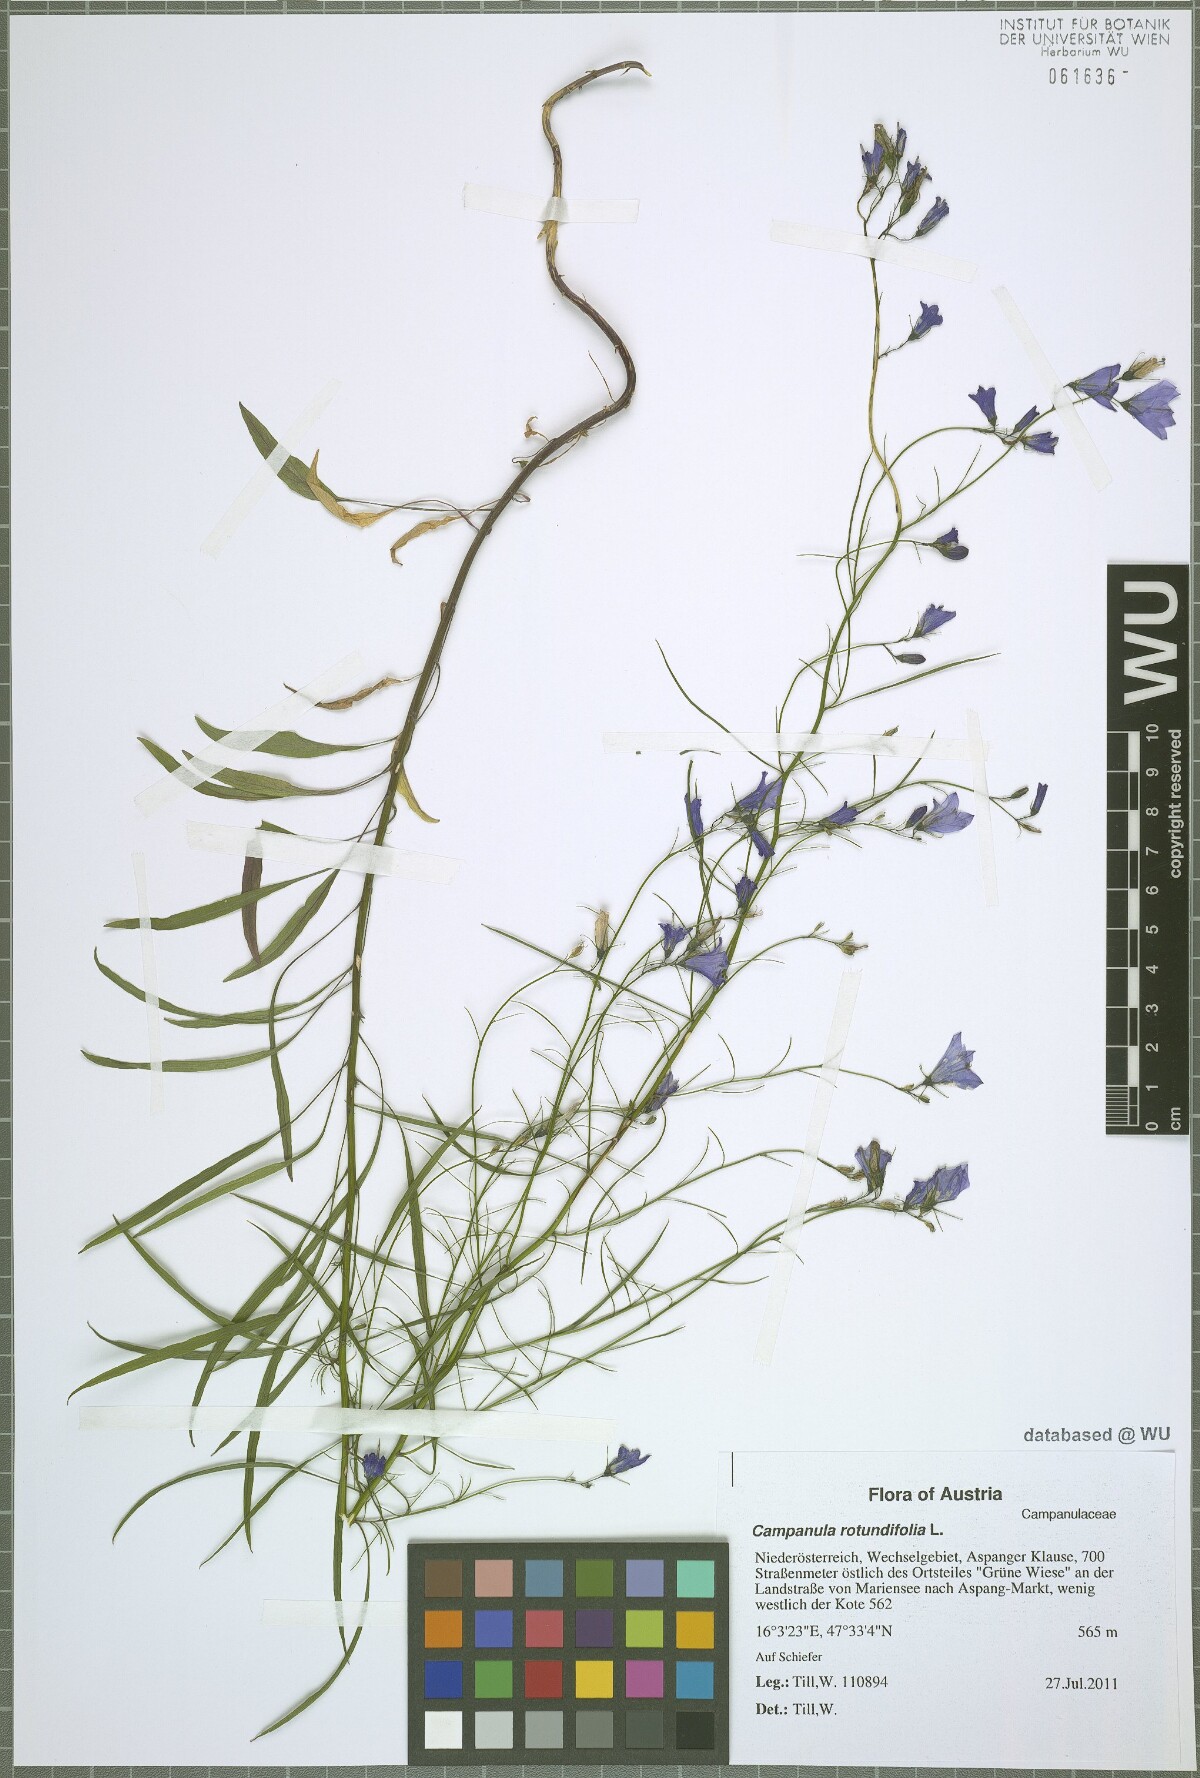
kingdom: Plantae
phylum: Tracheophyta
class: Magnoliopsida
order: Asterales
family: Campanulaceae
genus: Campanula
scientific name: Campanula rotundifolia
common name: Harebell
